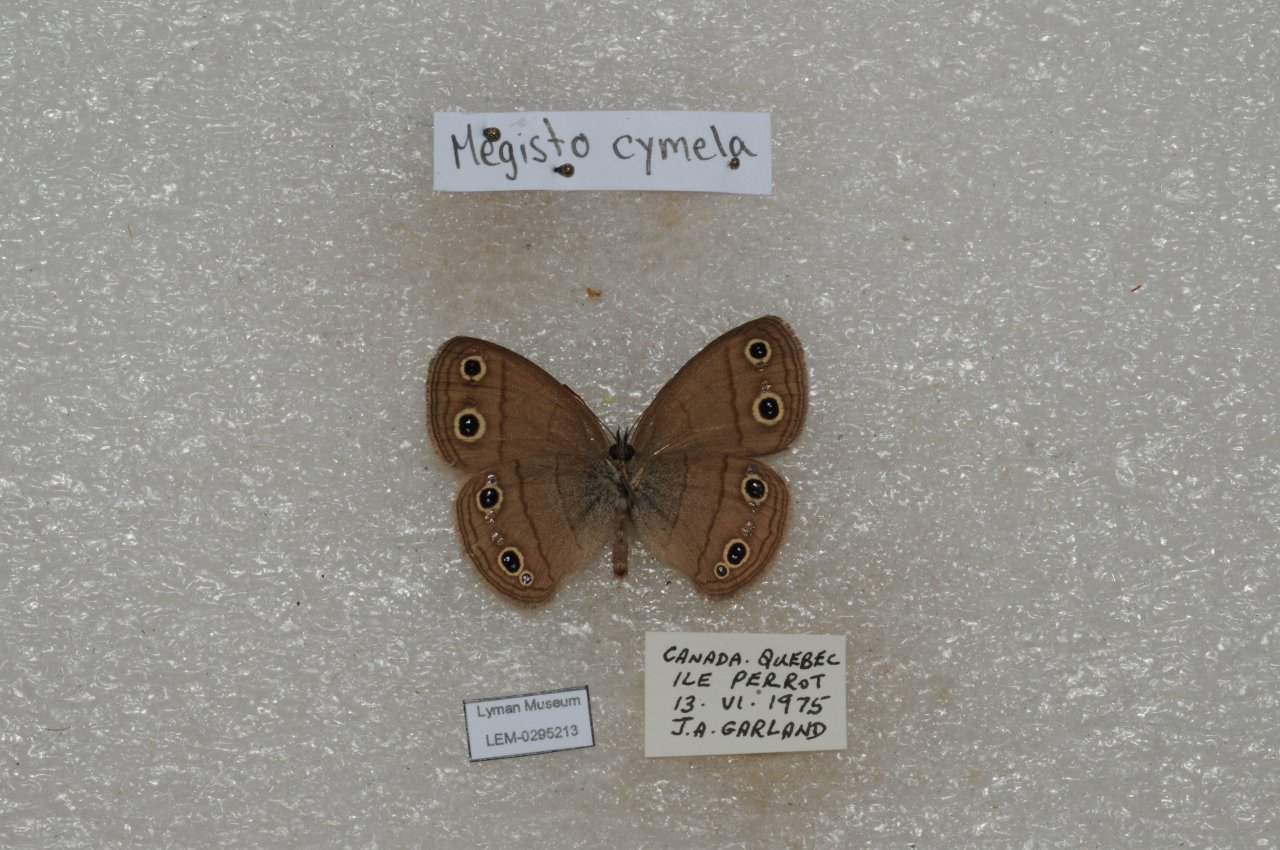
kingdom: Animalia
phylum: Arthropoda
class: Insecta
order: Lepidoptera
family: Nymphalidae
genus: Euptychia
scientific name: Euptychia cymela
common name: Little Wood Satyr
